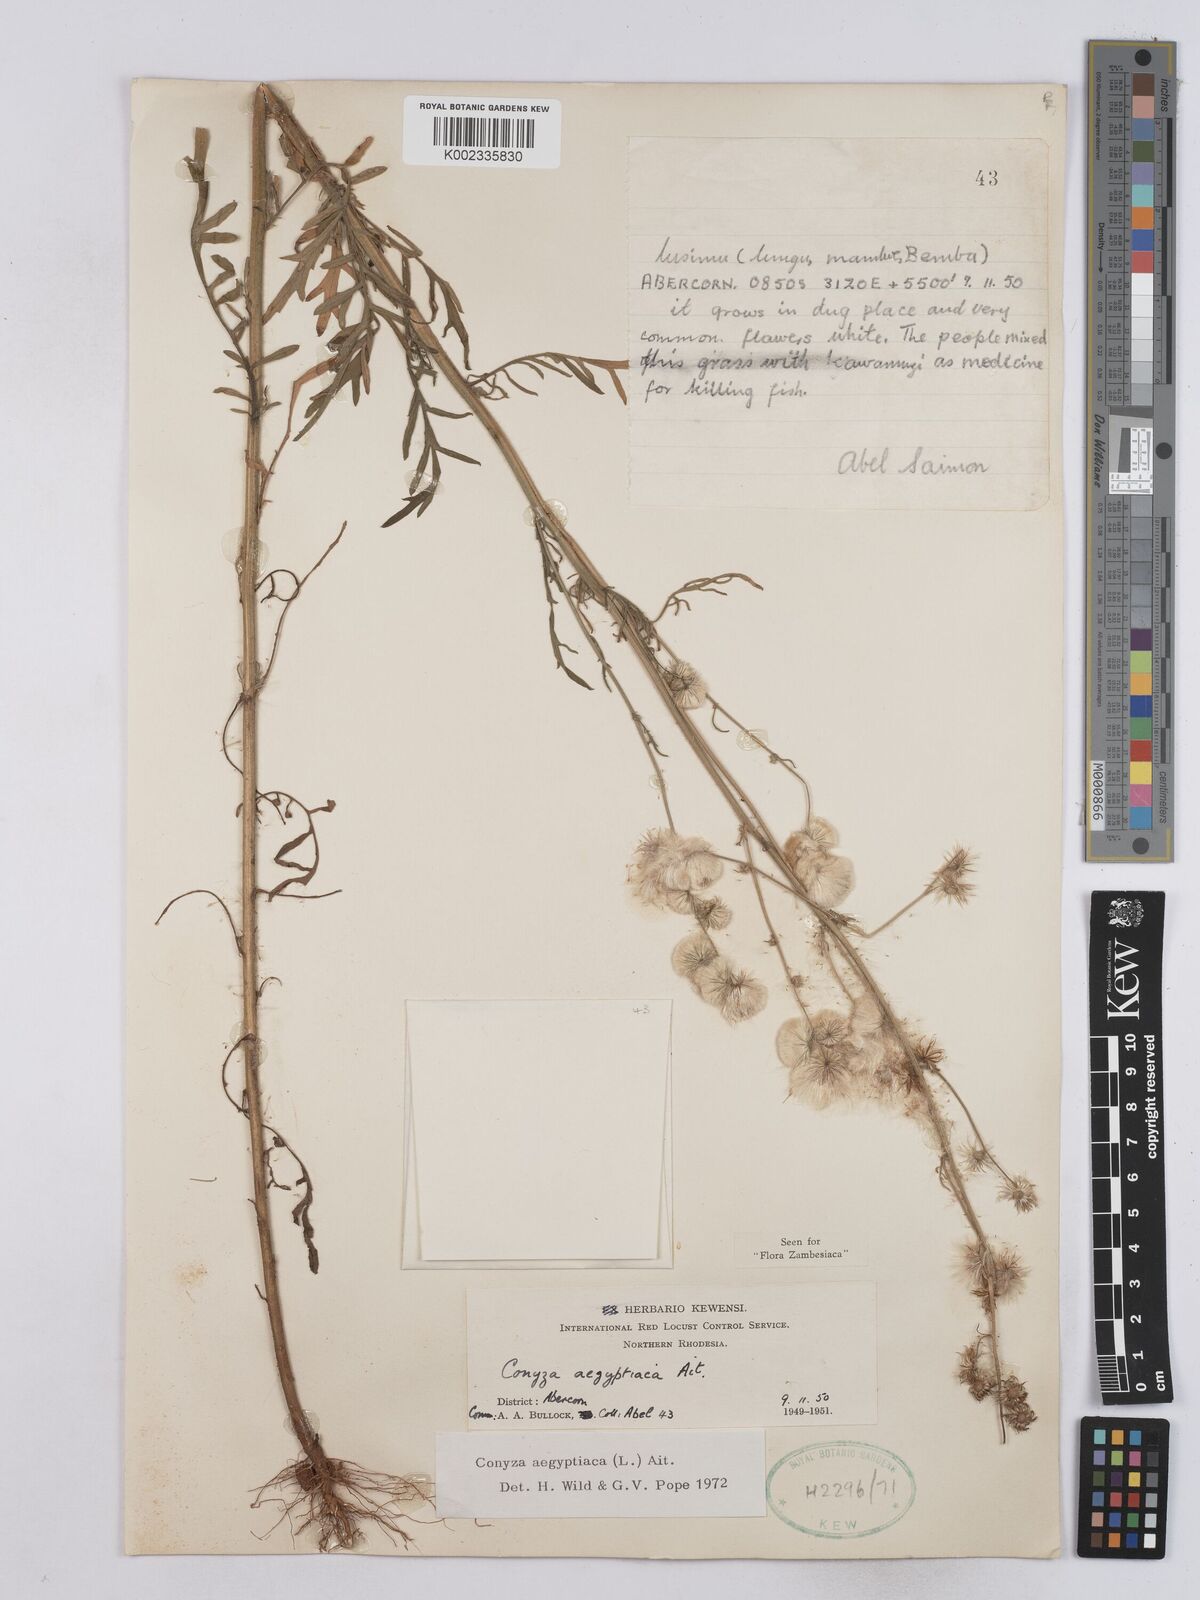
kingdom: Plantae
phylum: Tracheophyta
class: Magnoliopsida
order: Asterales
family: Asteraceae
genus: Nidorella
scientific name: Nidorella aegyptiaca
